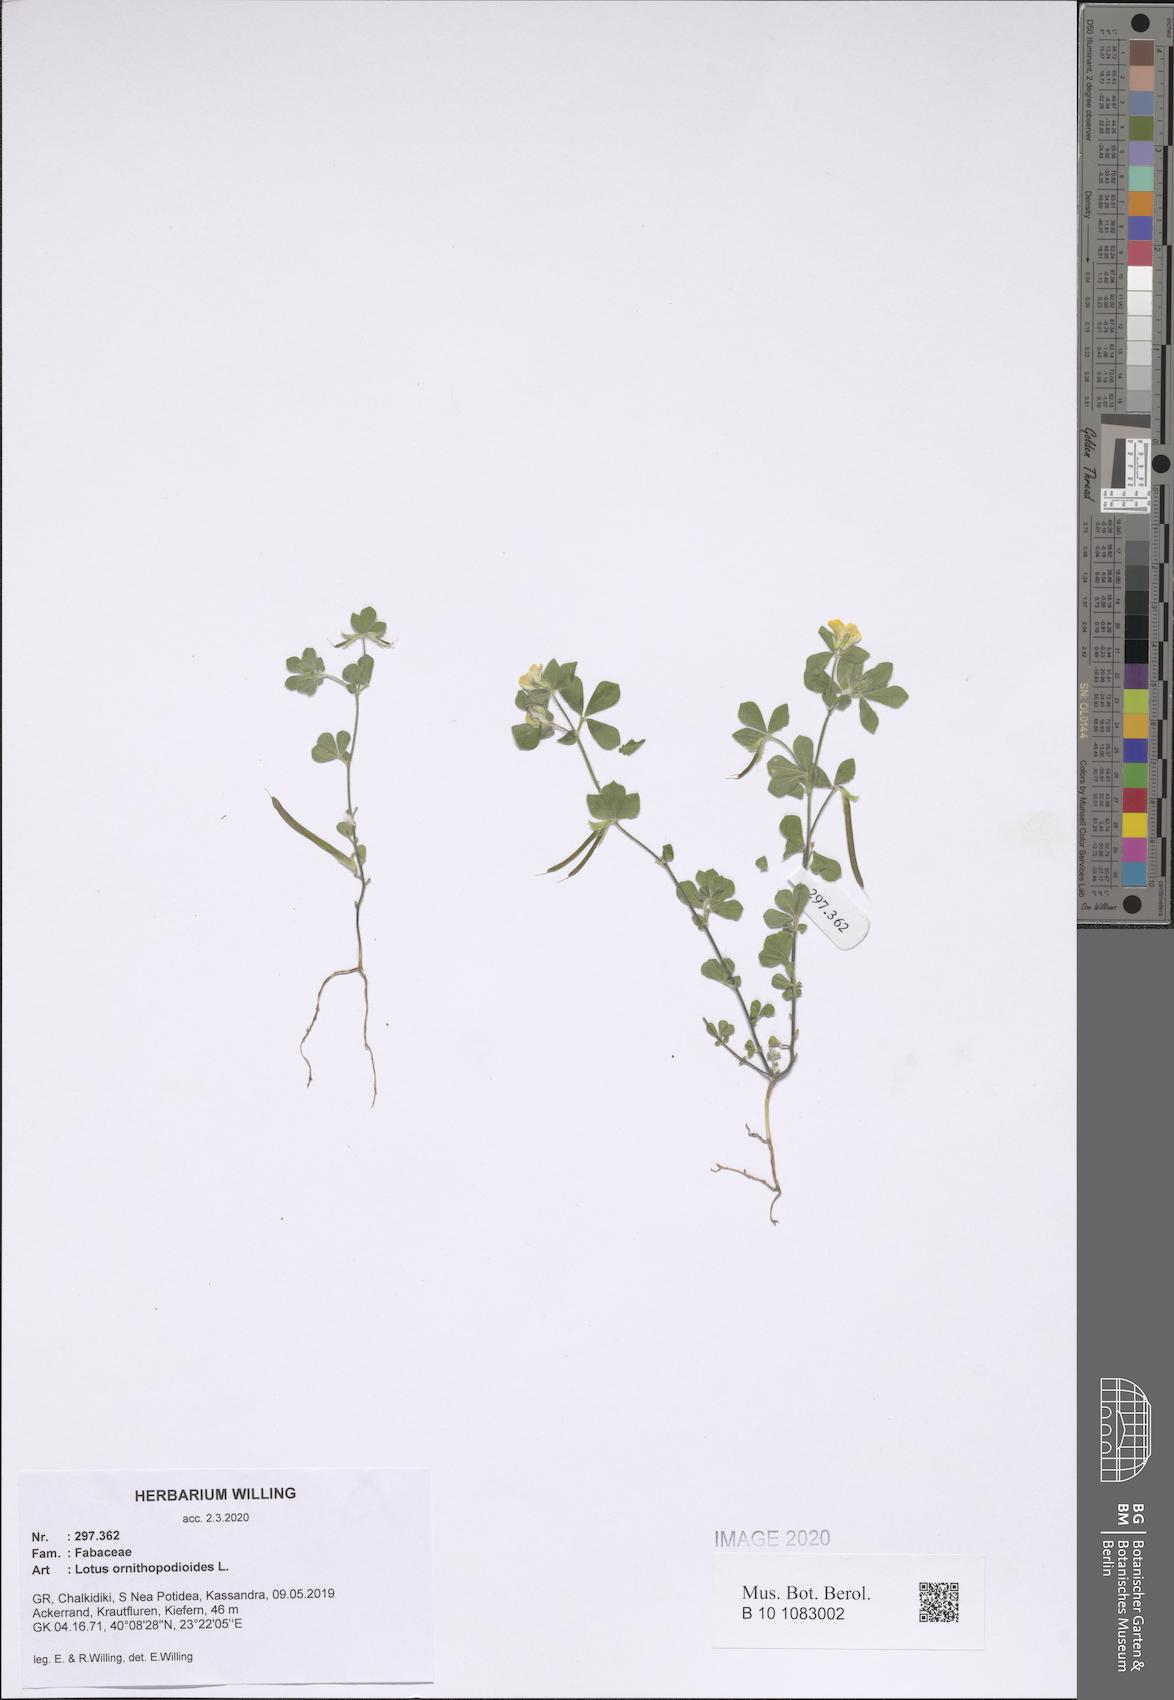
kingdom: Plantae
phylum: Tracheophyta
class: Magnoliopsida
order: Fabales
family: Fabaceae
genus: Lotus
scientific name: Lotus ornithopodioides
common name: Southern bird's-foot trefoil
